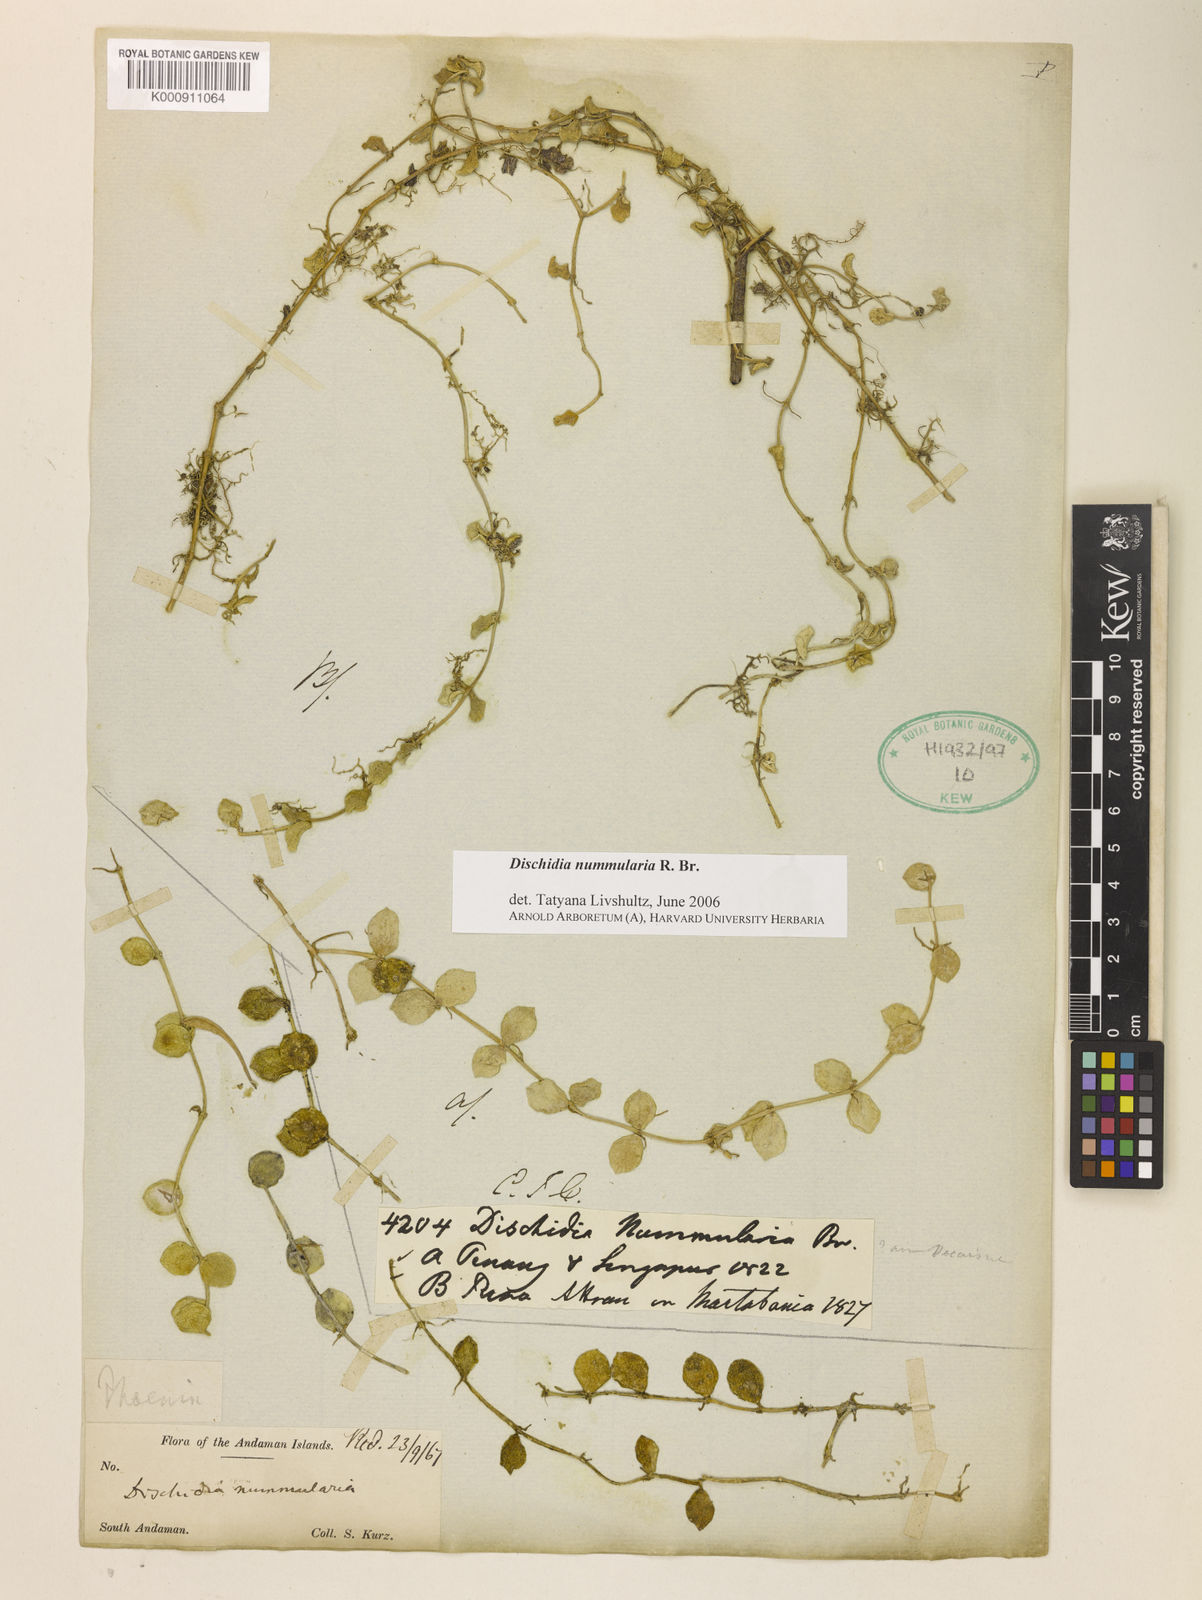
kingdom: Plantae
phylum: Tracheophyta
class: Magnoliopsida
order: Gentianales
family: Apocynaceae
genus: Dischidia
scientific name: Dischidia nummularia
